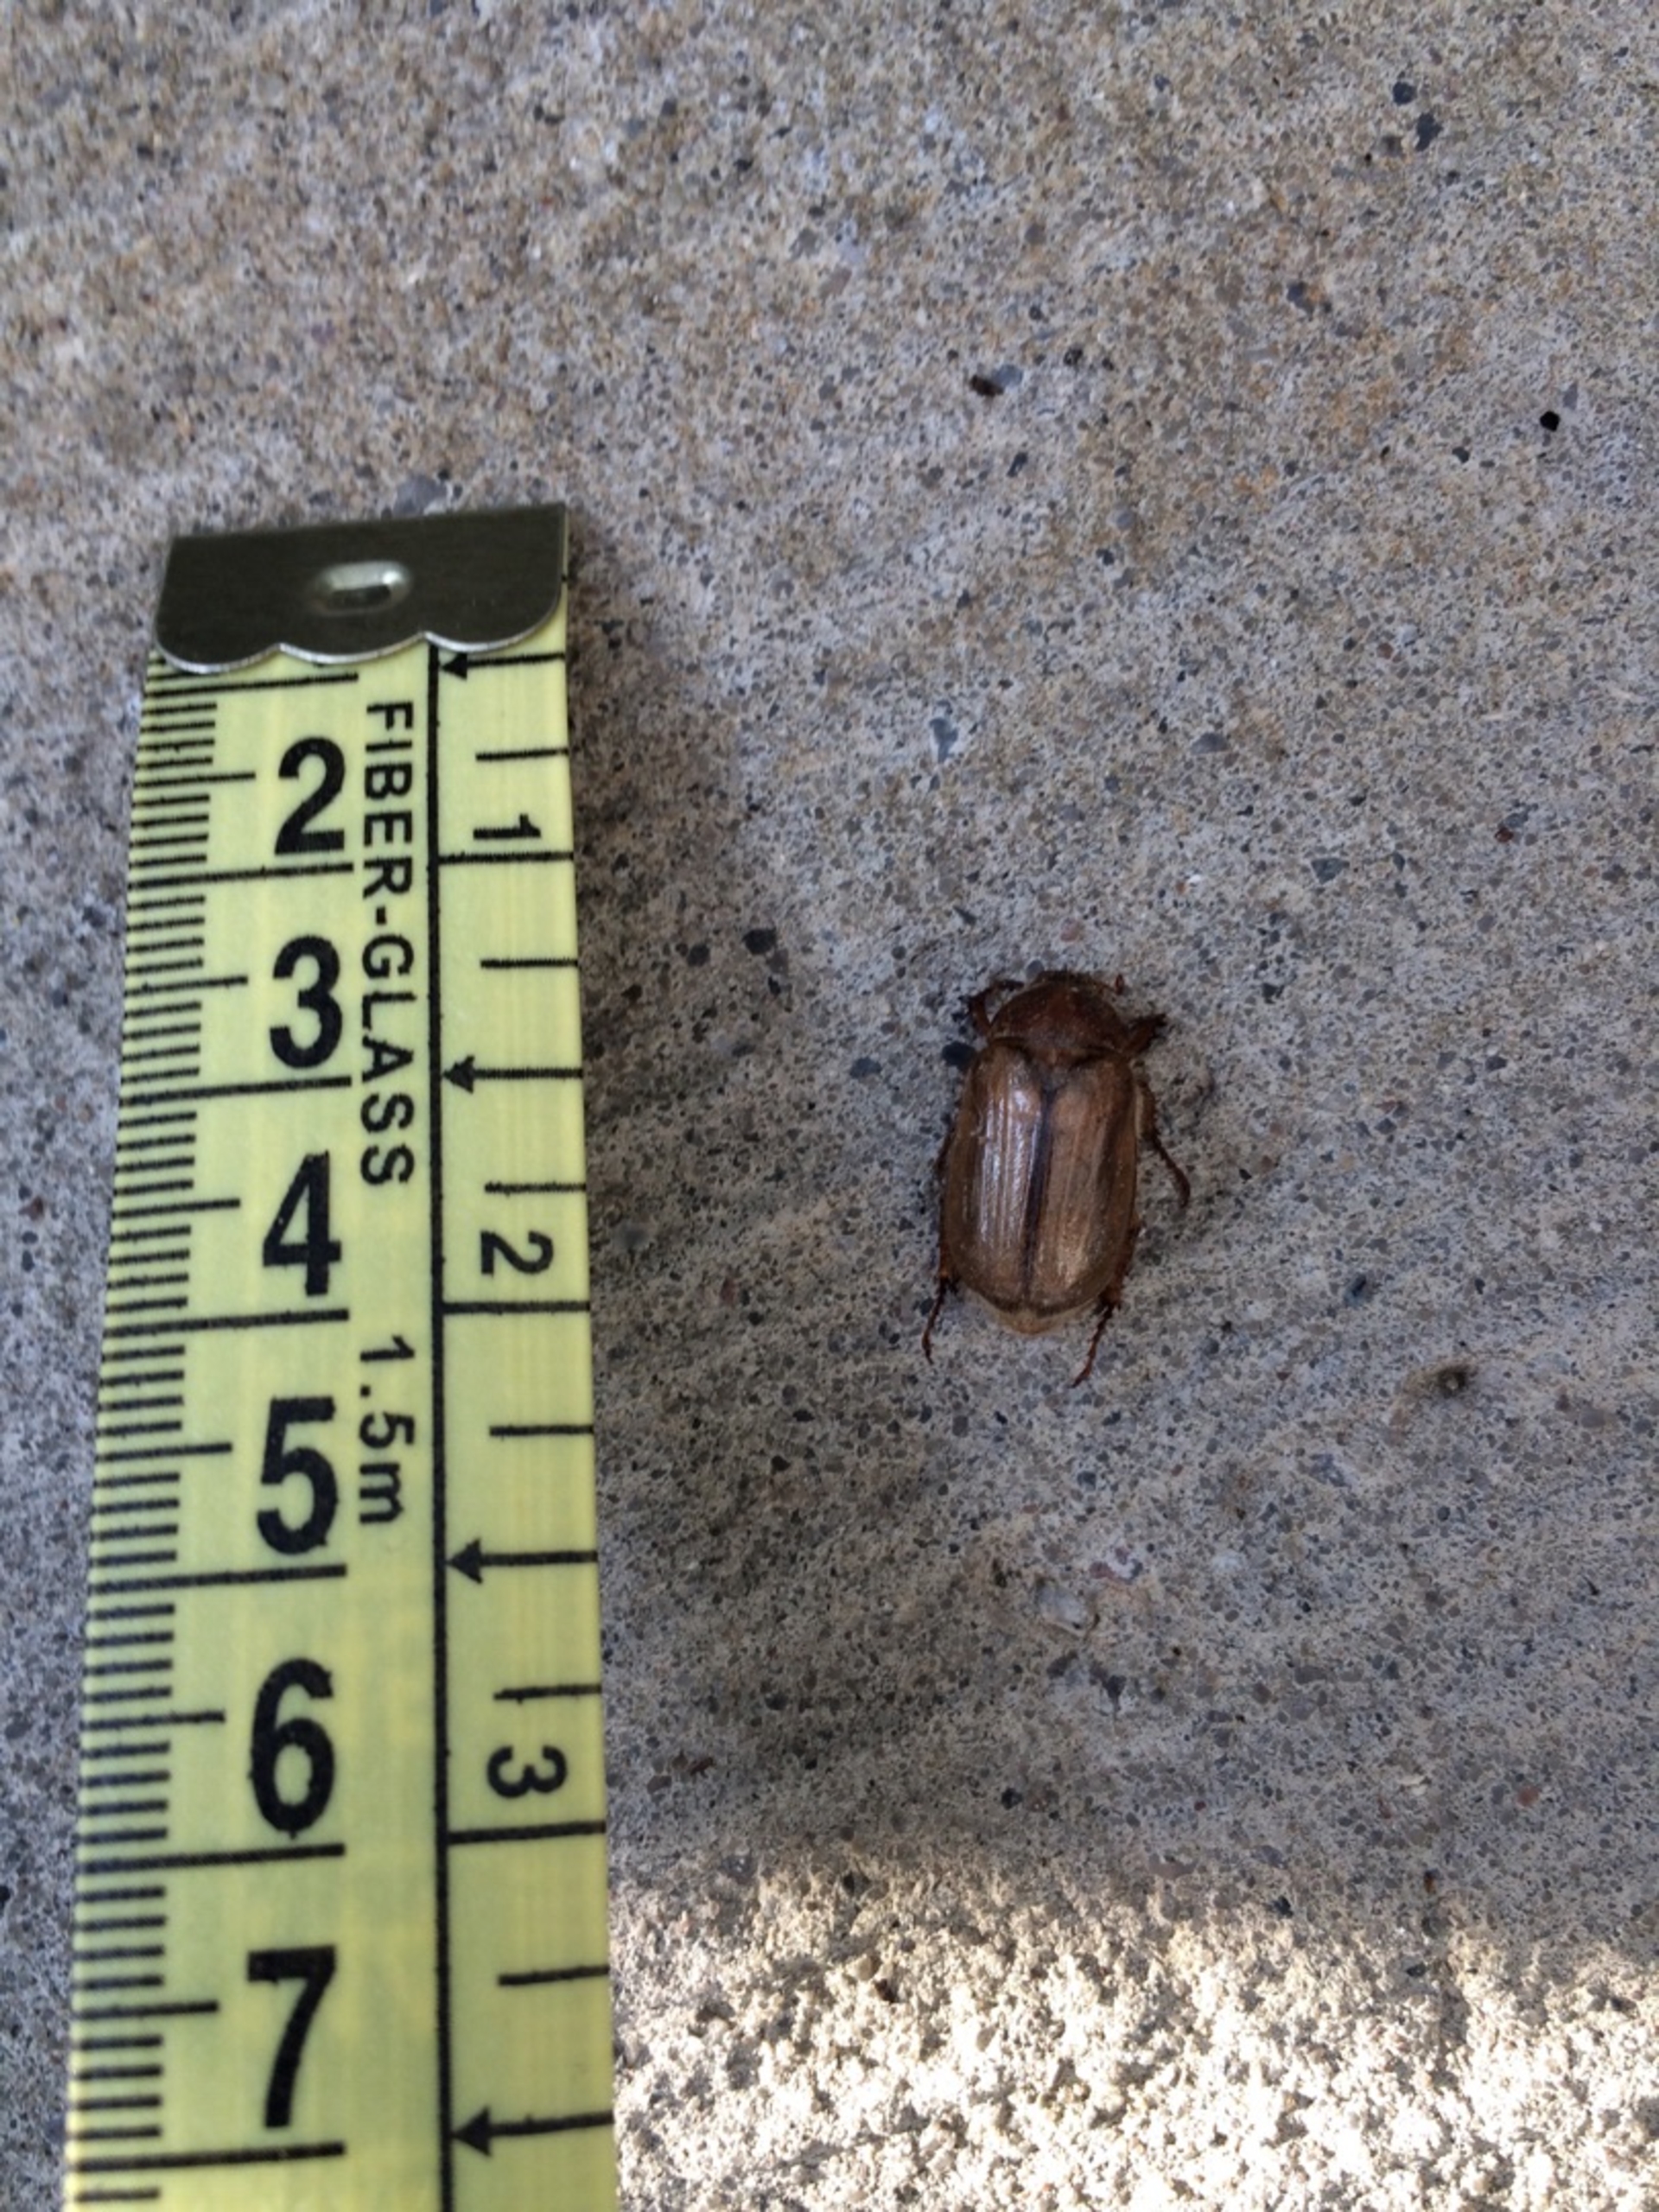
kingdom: Animalia
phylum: Arthropoda
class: Insecta
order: Coleoptera
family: Scarabaeidae
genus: Amphimallon
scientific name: Amphimallon solstitiale
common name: Sankthansoldenborre
